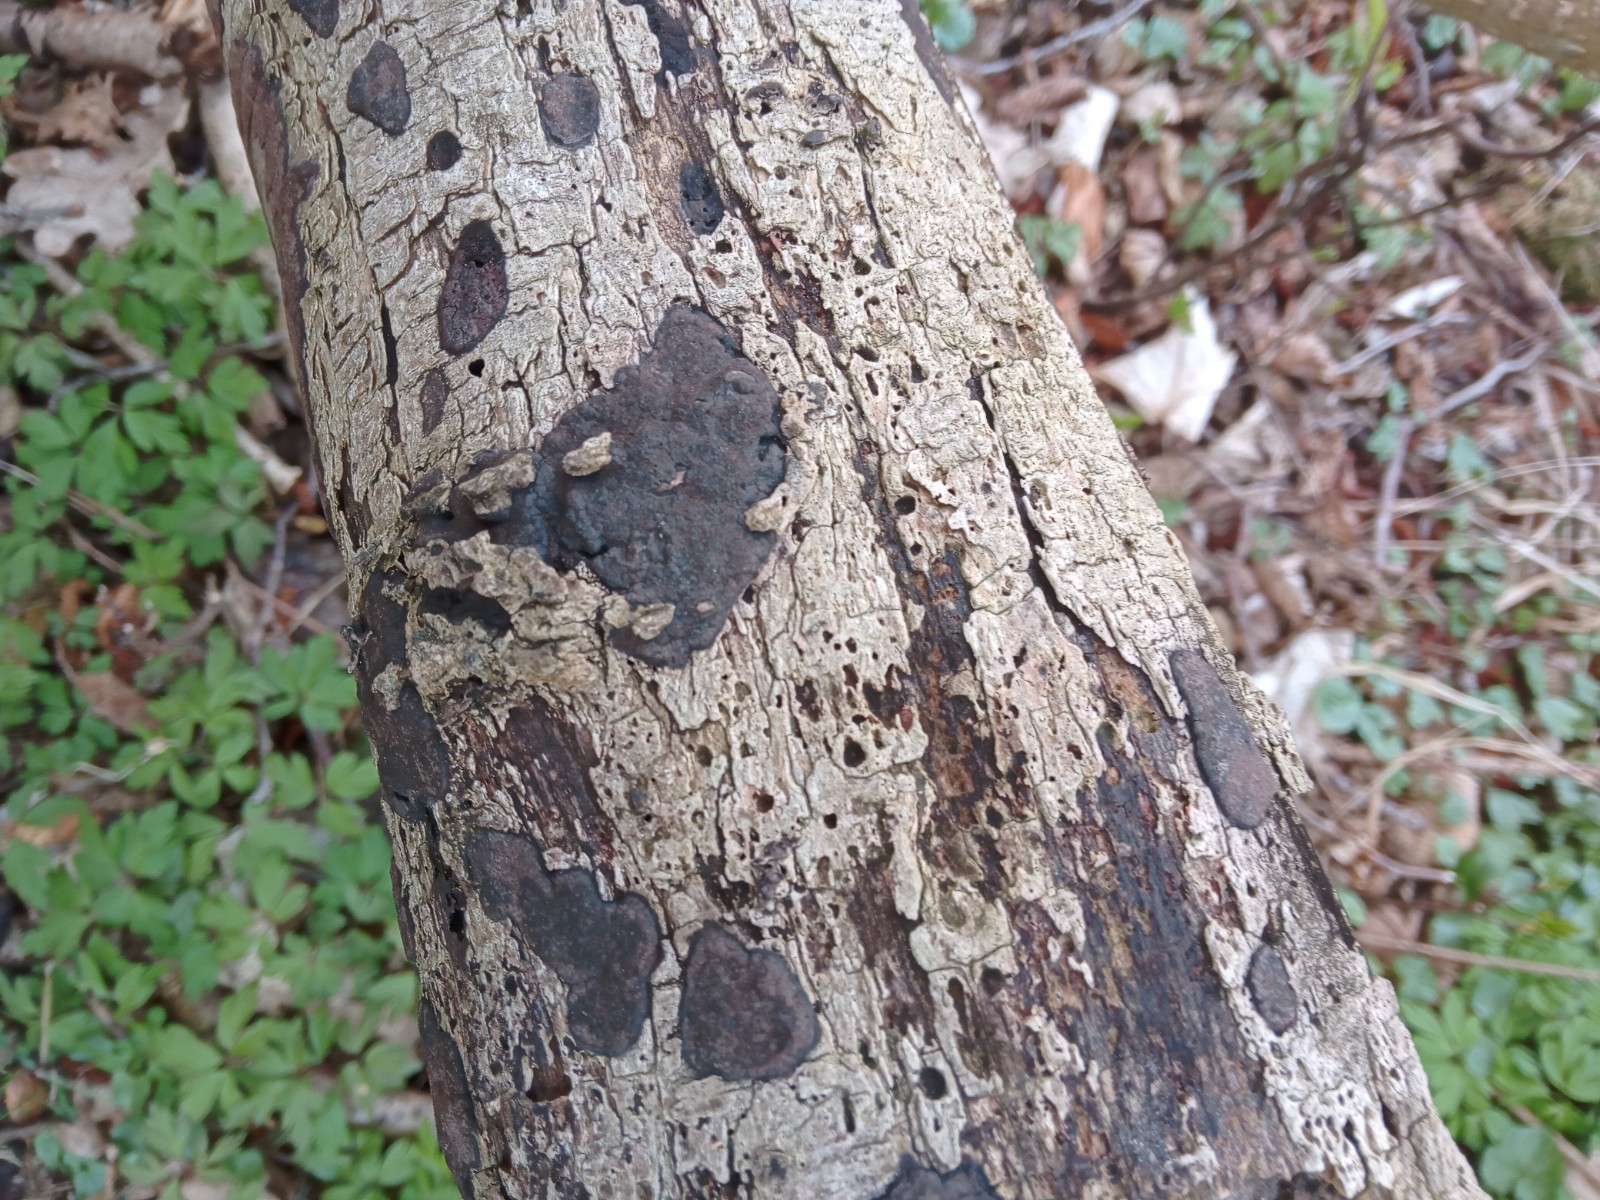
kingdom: Fungi
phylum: Ascomycota
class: Sordariomycetes
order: Xylariales
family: Hypoxylaceae
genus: Hypoxylon
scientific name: Hypoxylon petriniae
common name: nedsænket kulbær
